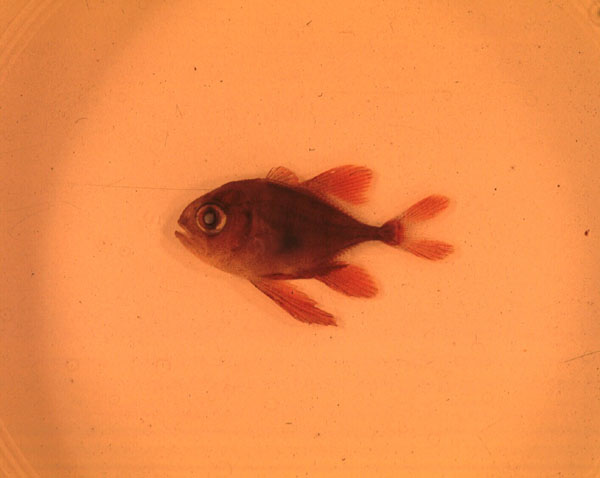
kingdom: Animalia
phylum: Chordata
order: Perciformes
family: Carangidae
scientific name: Carangidae
